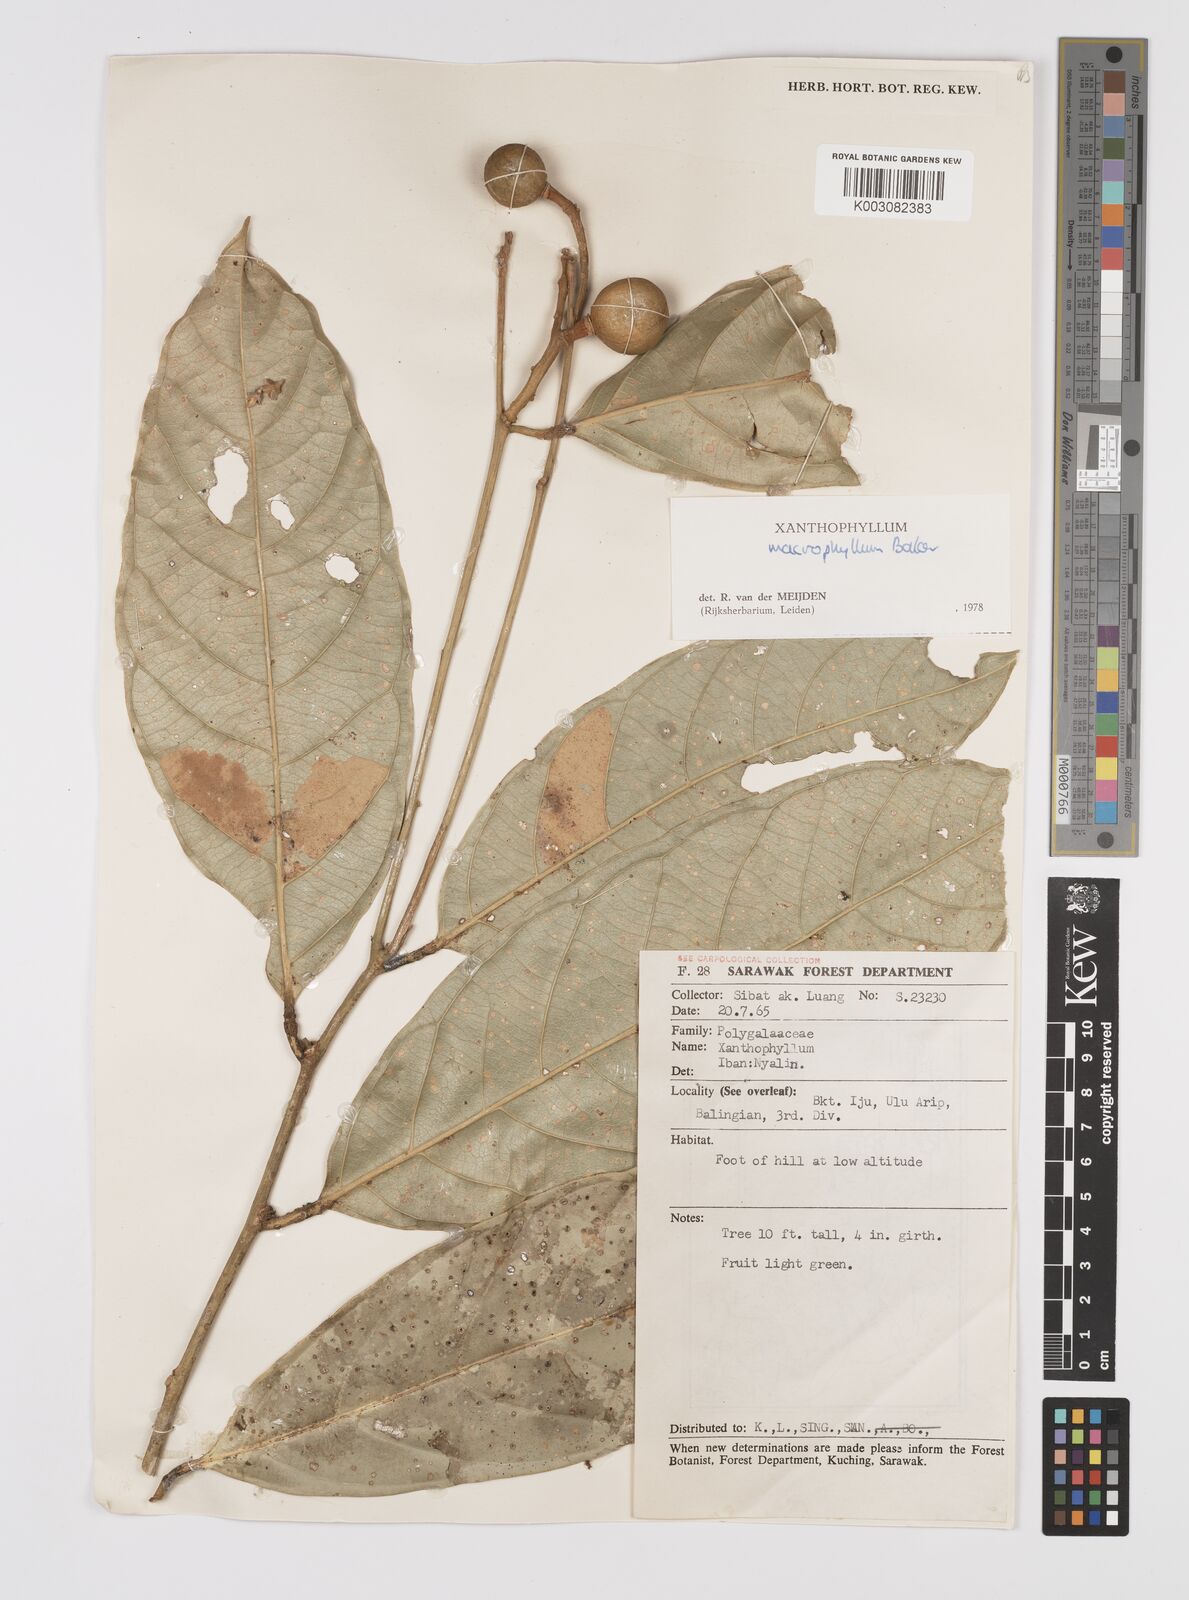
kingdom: Plantae
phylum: Tracheophyta
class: Magnoliopsida
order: Fabales
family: Polygalaceae
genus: Xanthophyllum
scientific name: Xanthophyllum macrophyllum
